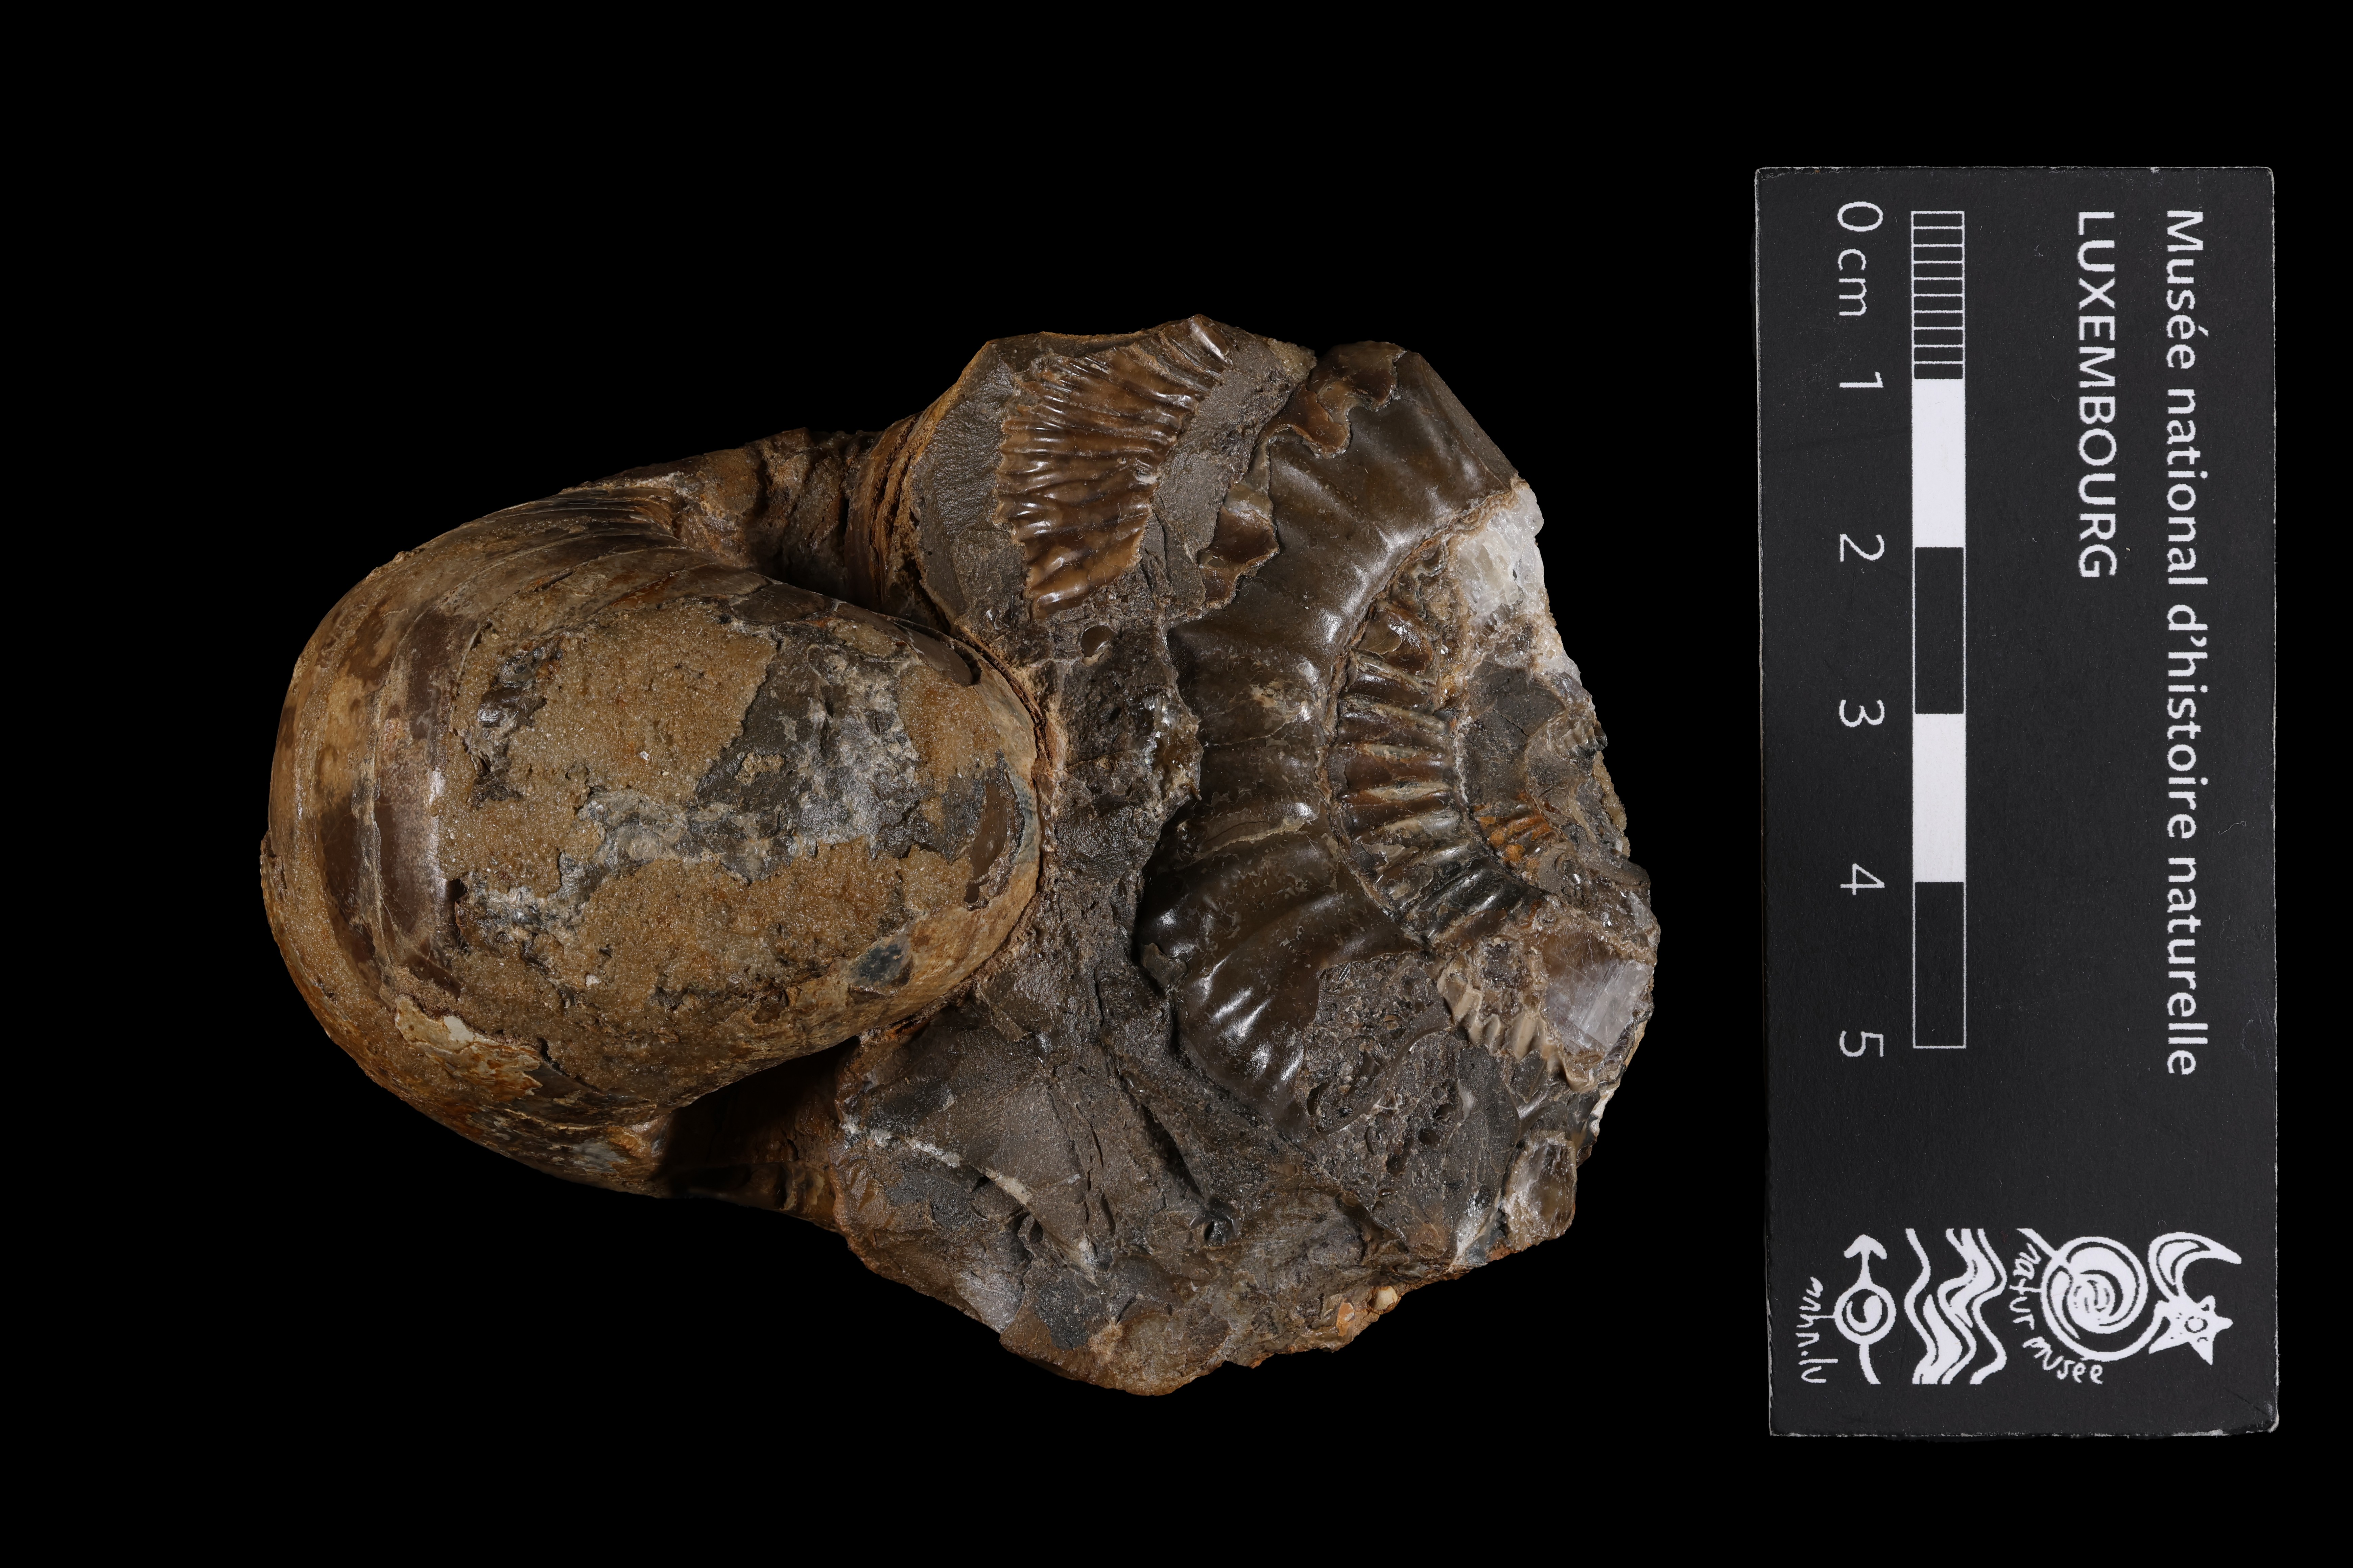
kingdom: Animalia
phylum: Mollusca
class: Cephalopoda
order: Nautilida
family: Nautilidae
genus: Cenoceras
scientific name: Cenoceras
